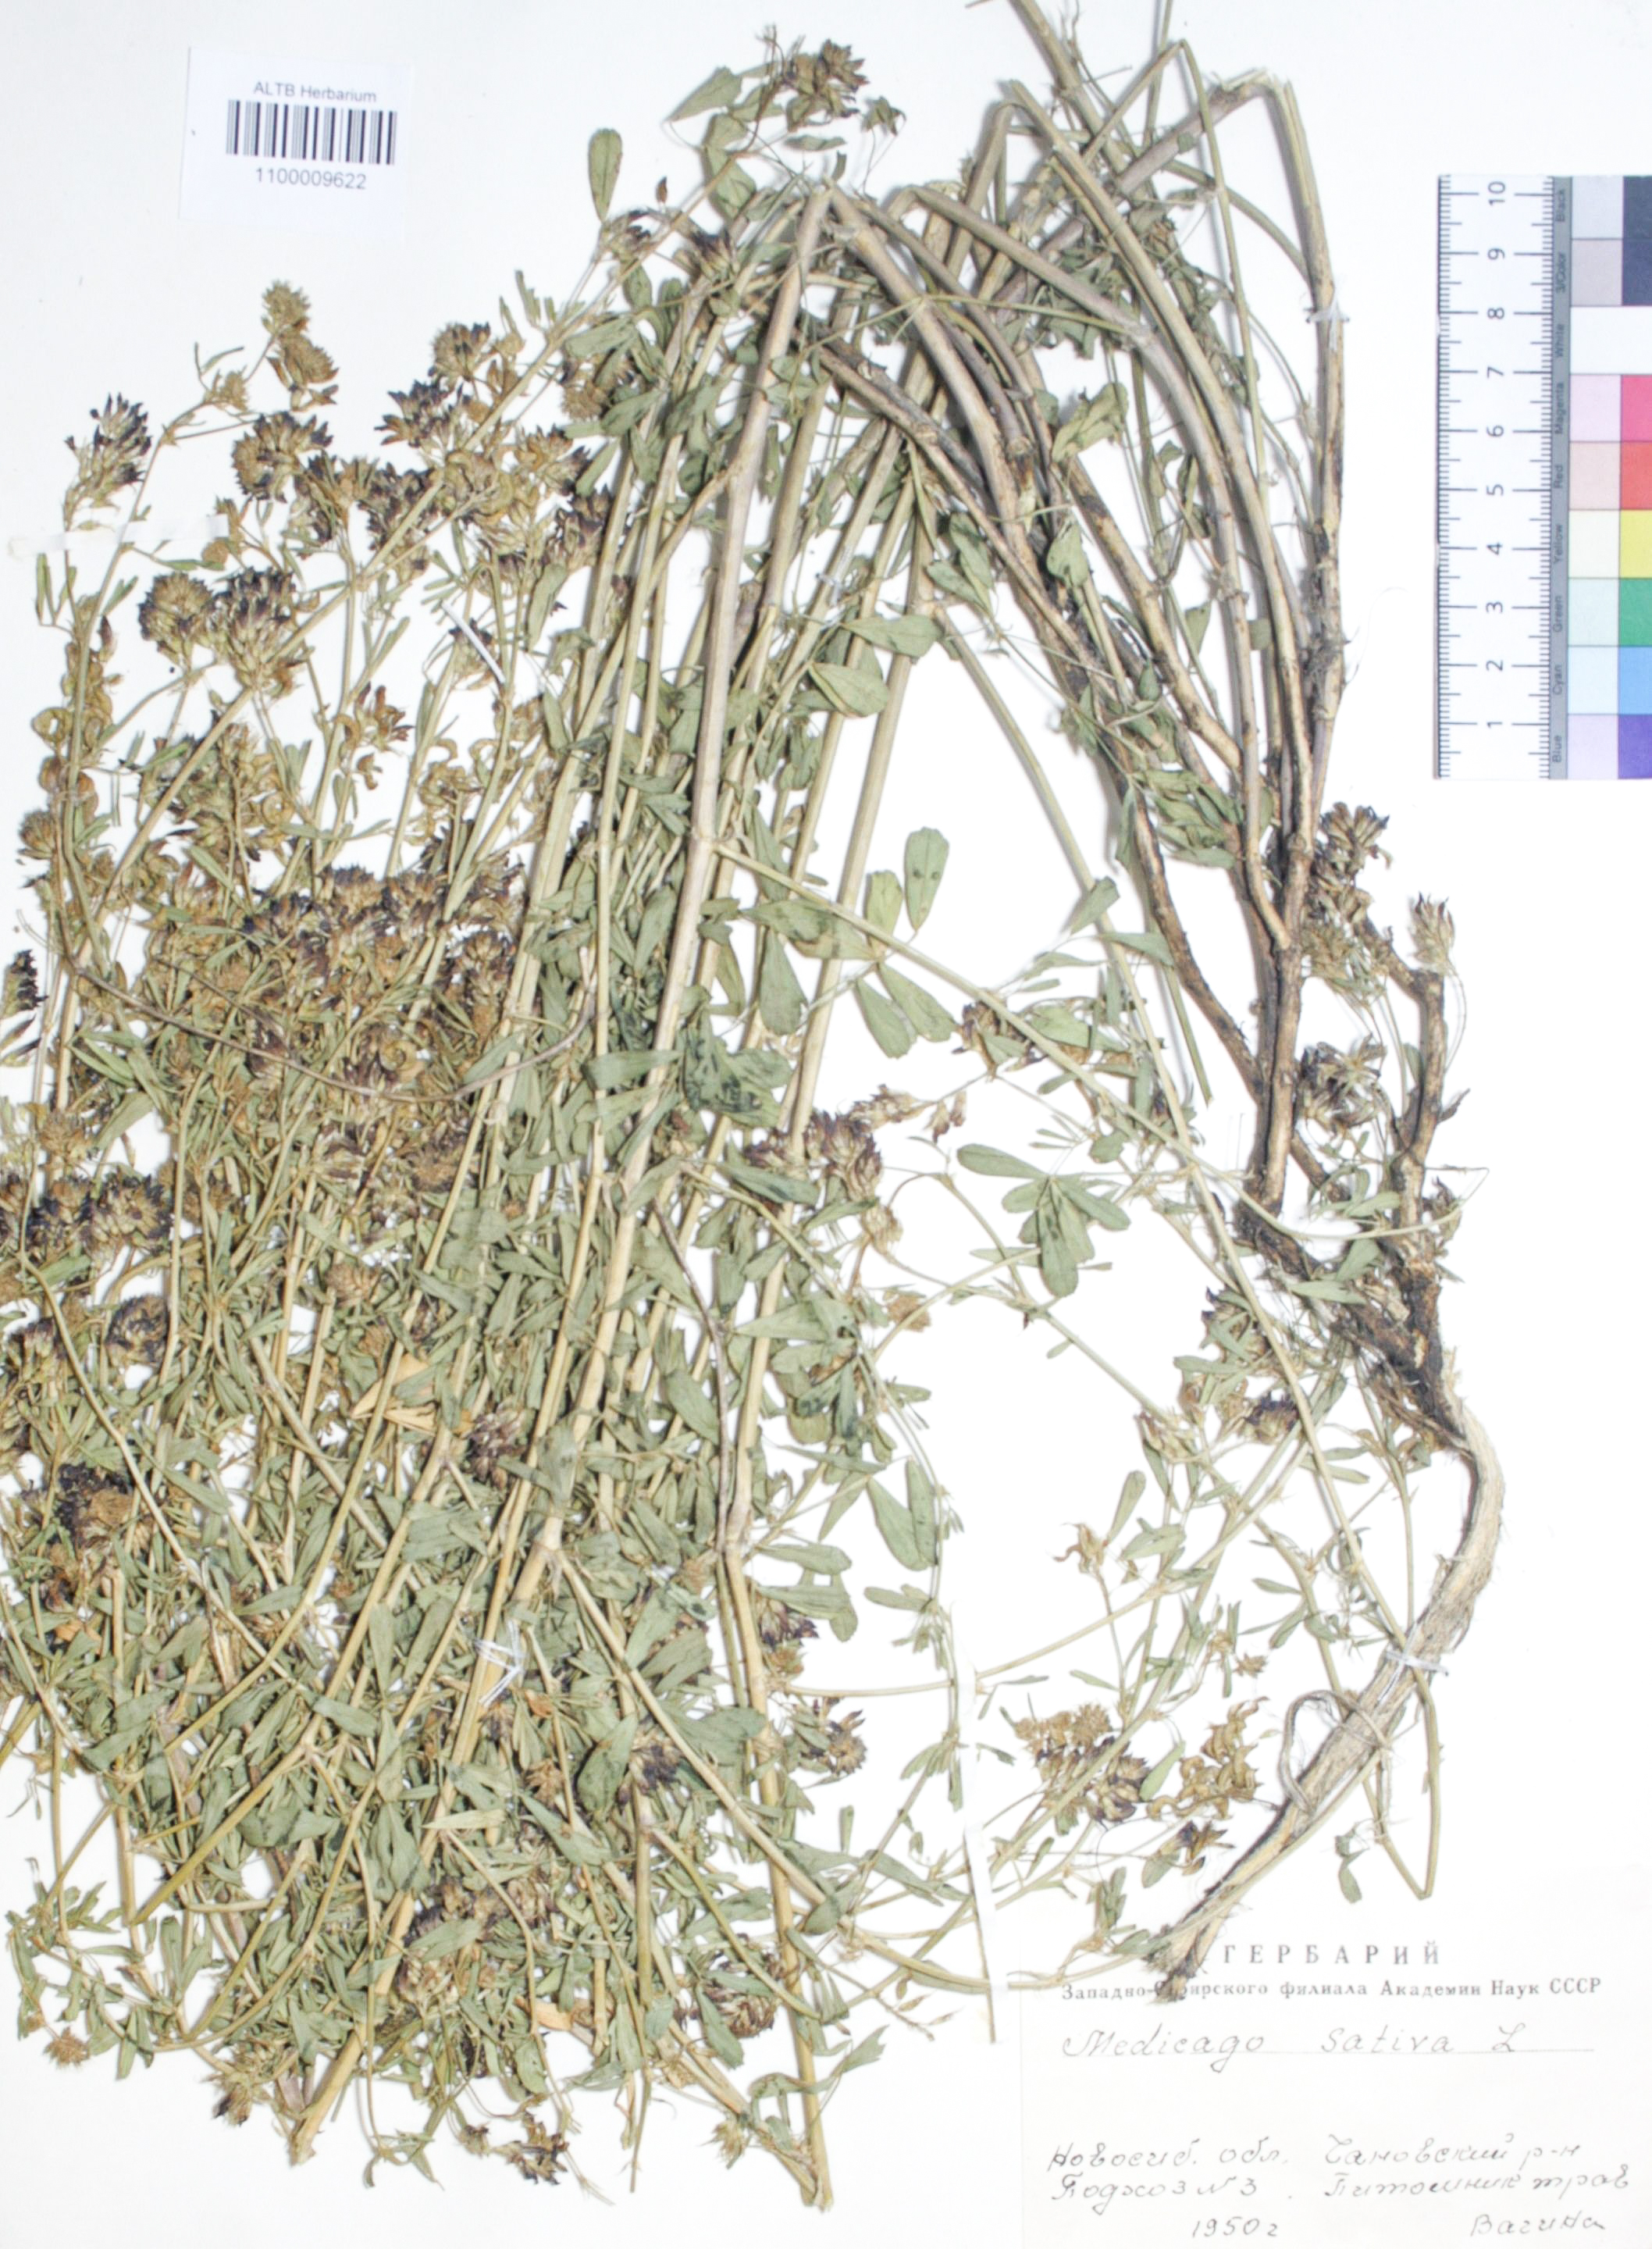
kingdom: Plantae
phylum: Tracheophyta
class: Magnoliopsida
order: Fabales
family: Fabaceae
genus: Medicago
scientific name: Medicago sativa
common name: Alfalfa
